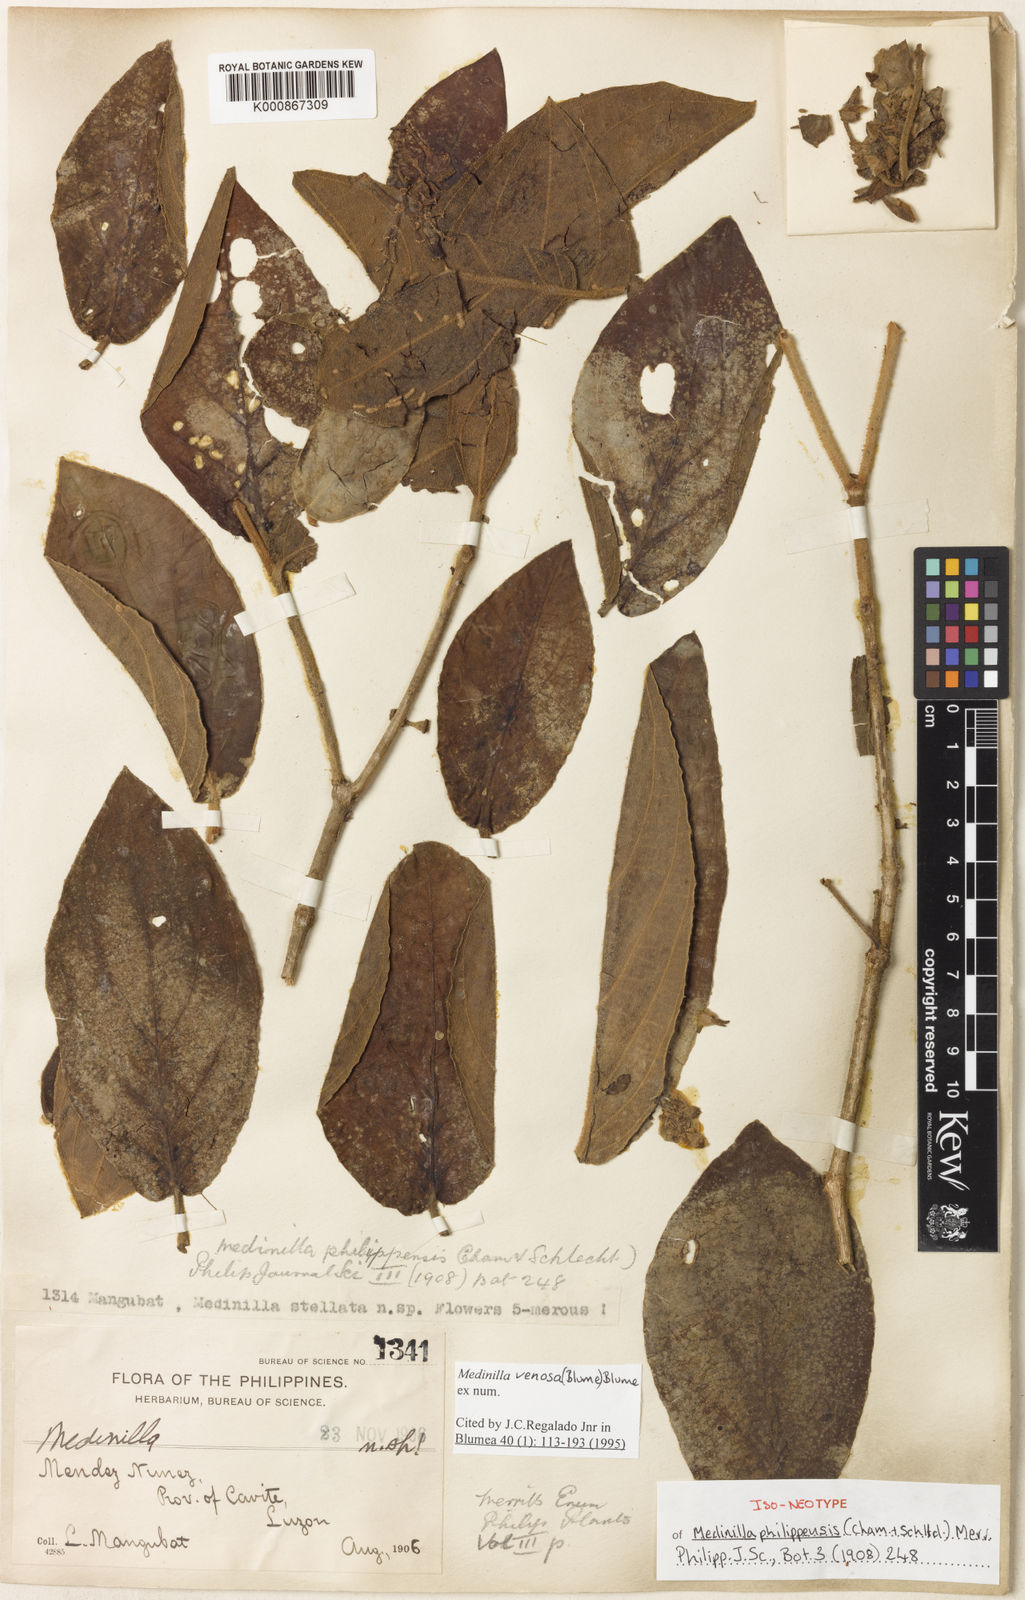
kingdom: Plantae
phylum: Tracheophyta
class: Magnoliopsida
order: Myrtales
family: Melastomataceae
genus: Medinilla
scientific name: Medinilla venosa
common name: Holdtight
